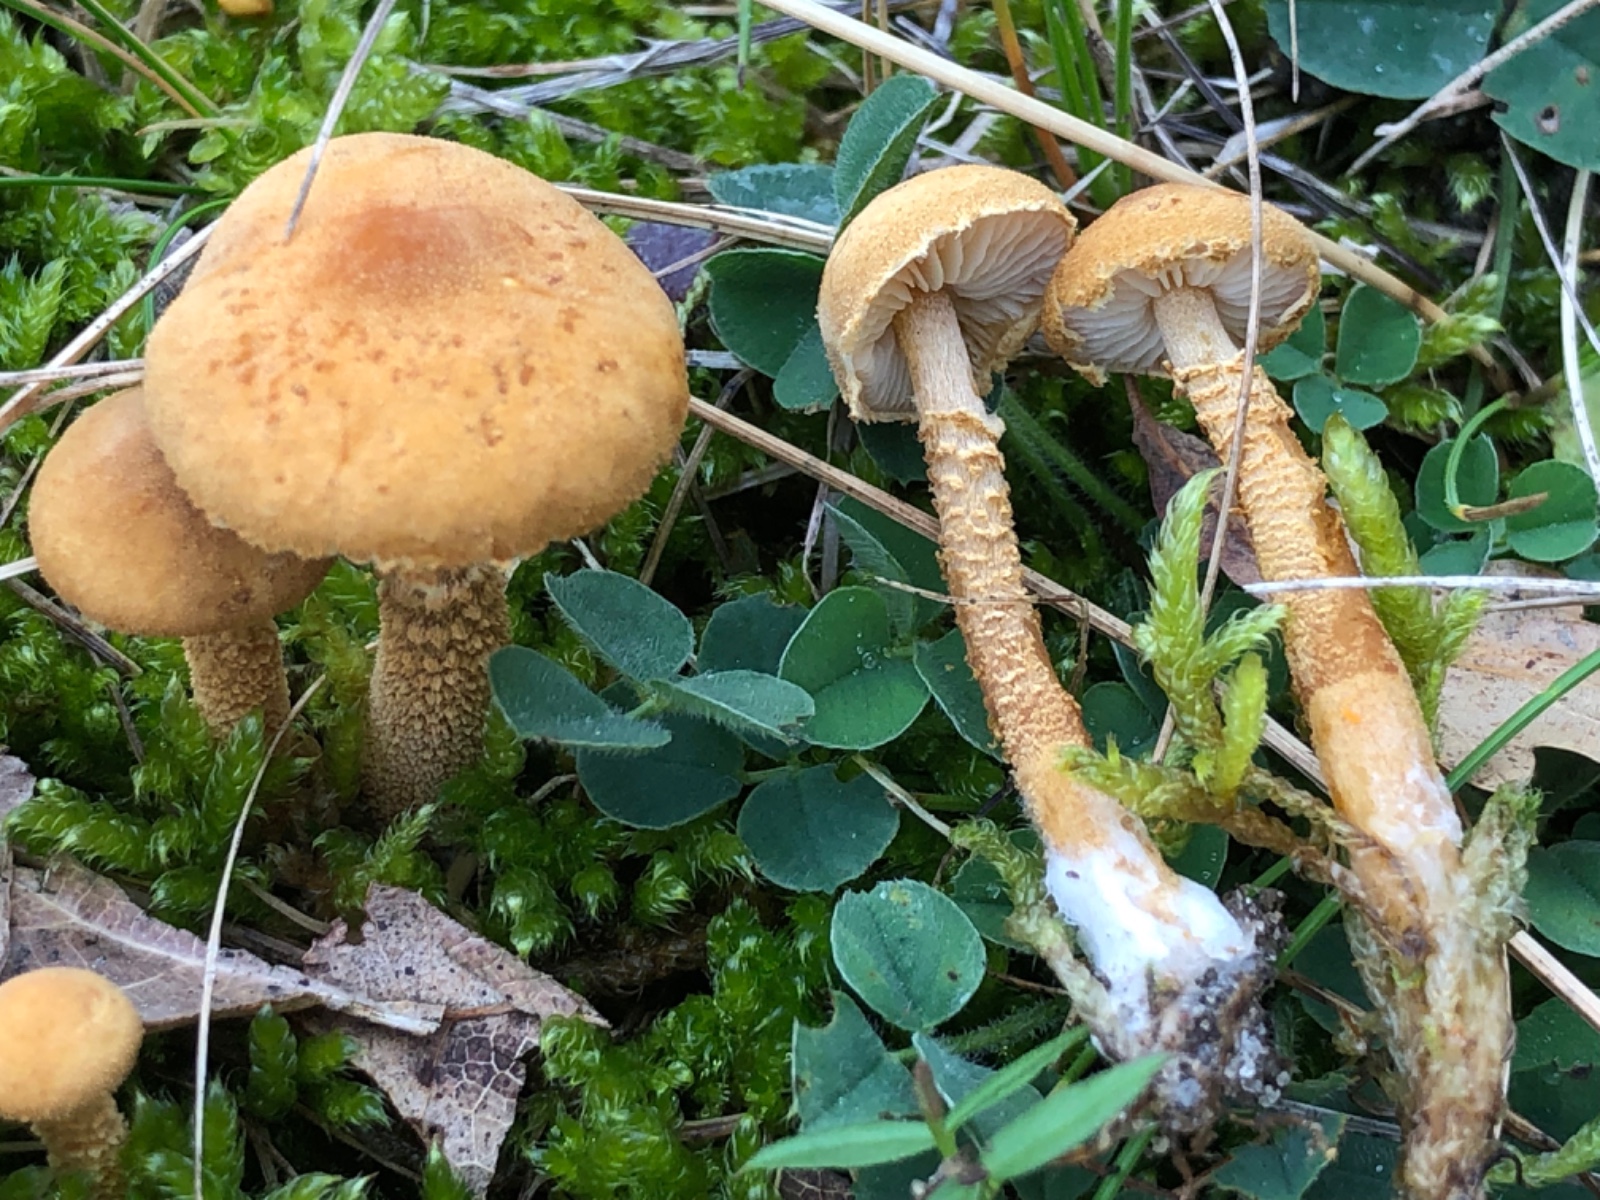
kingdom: Fungi
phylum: Basidiomycota
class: Agaricomycetes
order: Agaricales
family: Tricholomataceae
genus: Cystoderma
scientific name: Cystoderma amianthinum
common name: okkergul grynhat
